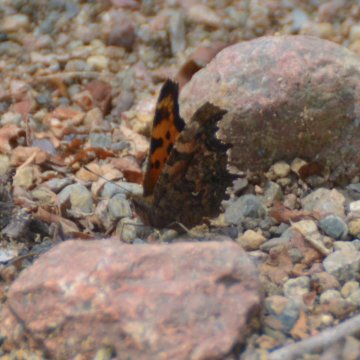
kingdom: Animalia
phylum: Arthropoda
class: Insecta
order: Lepidoptera
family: Nymphalidae
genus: Polygonia
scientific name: Polygonia faunus
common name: Green Comma
